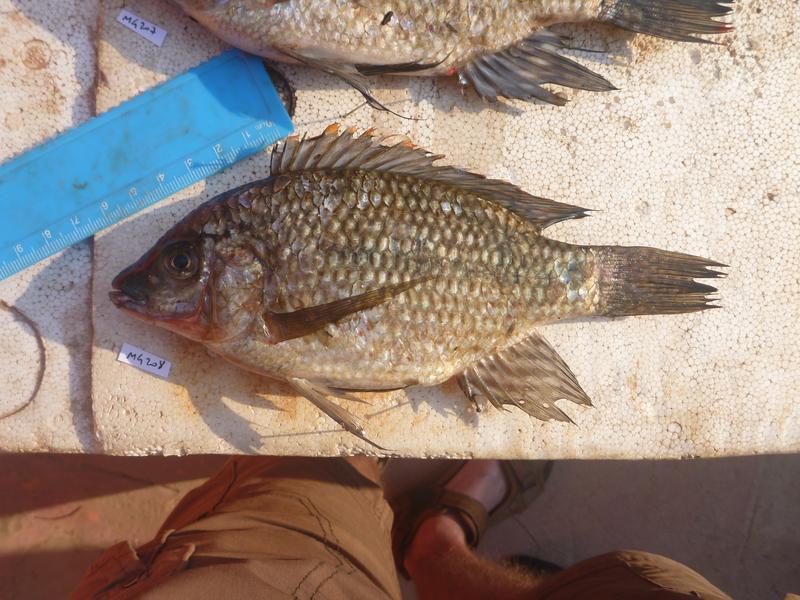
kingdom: Animalia
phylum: Chordata
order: Perciformes
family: Cichlidae
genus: Oreochromis
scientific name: Oreochromis karomo
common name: Karomo
